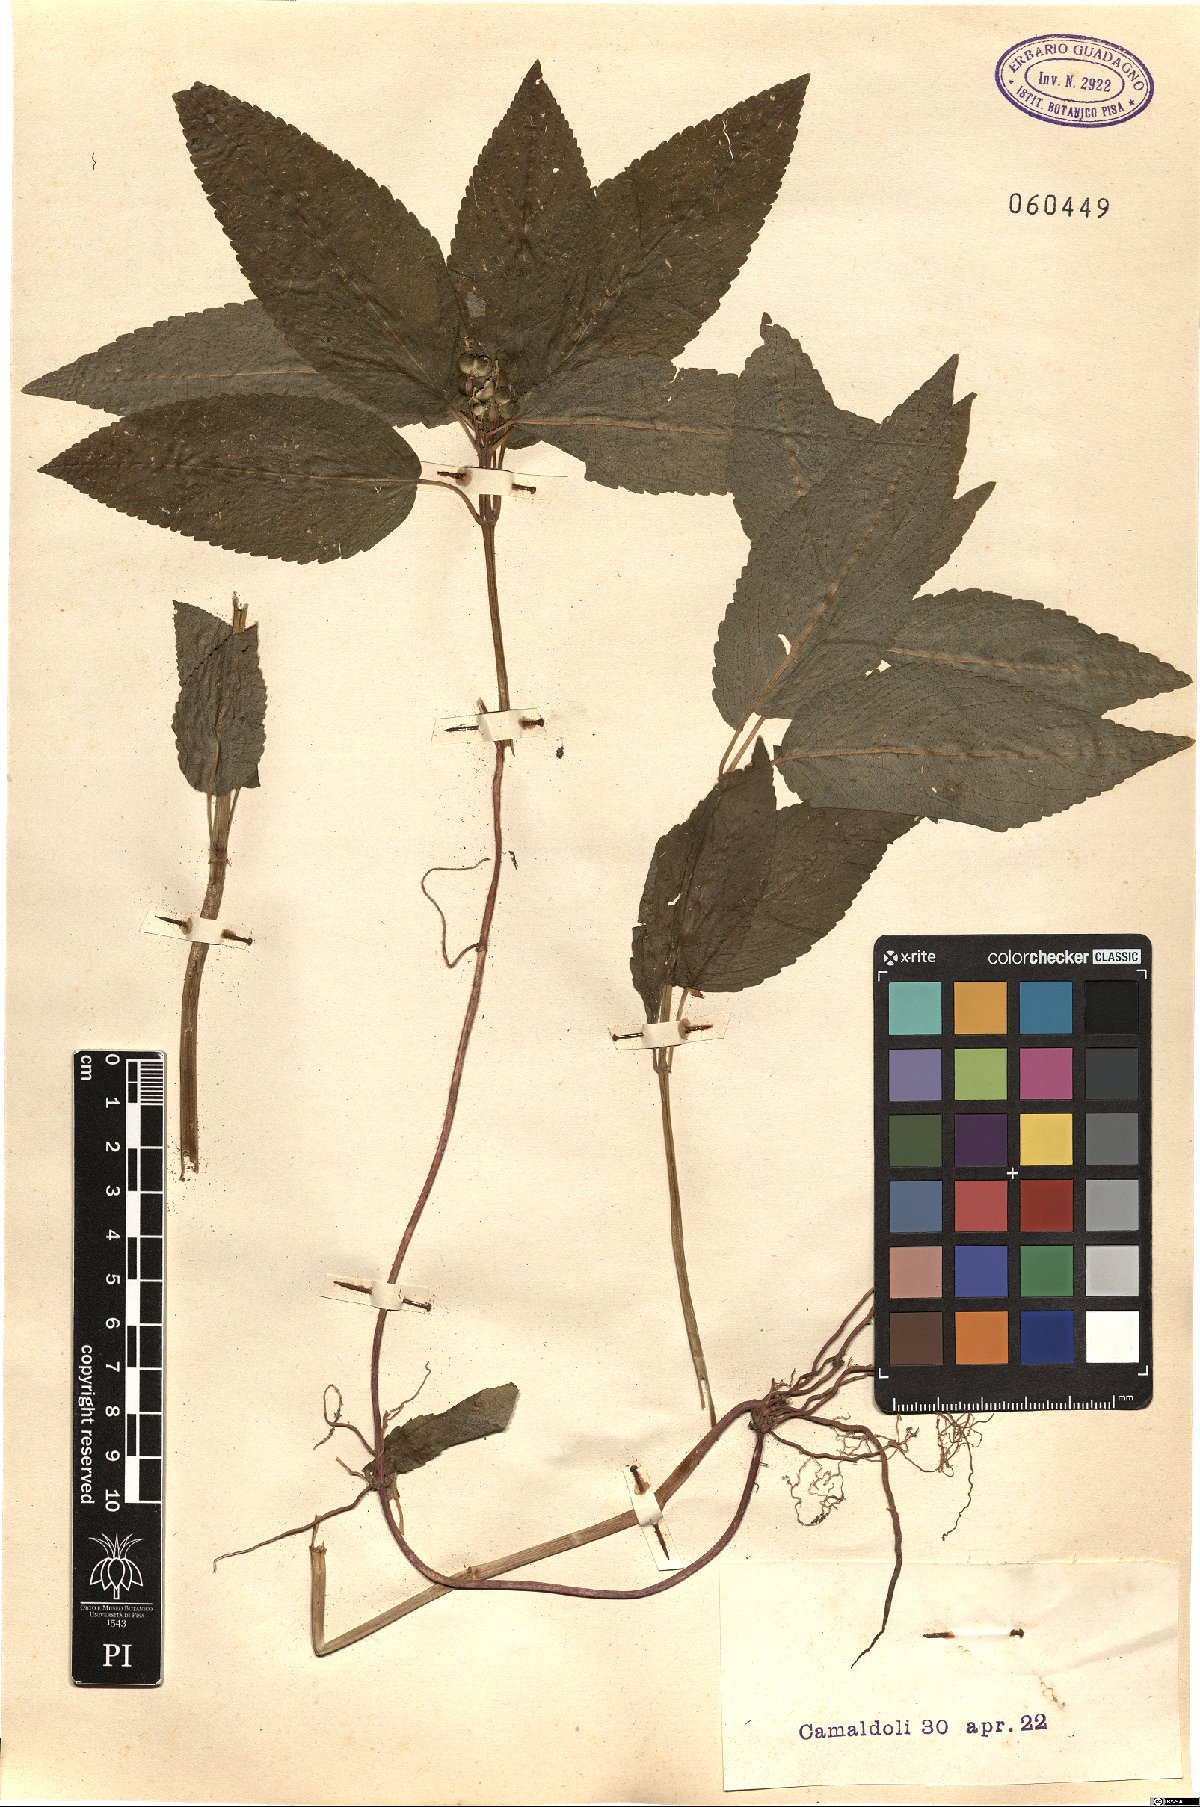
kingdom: Plantae
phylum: Tracheophyta
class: Magnoliopsida
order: Malpighiales
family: Euphorbiaceae
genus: Mercurialis
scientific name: Mercurialis perennis
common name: Dog mercury
